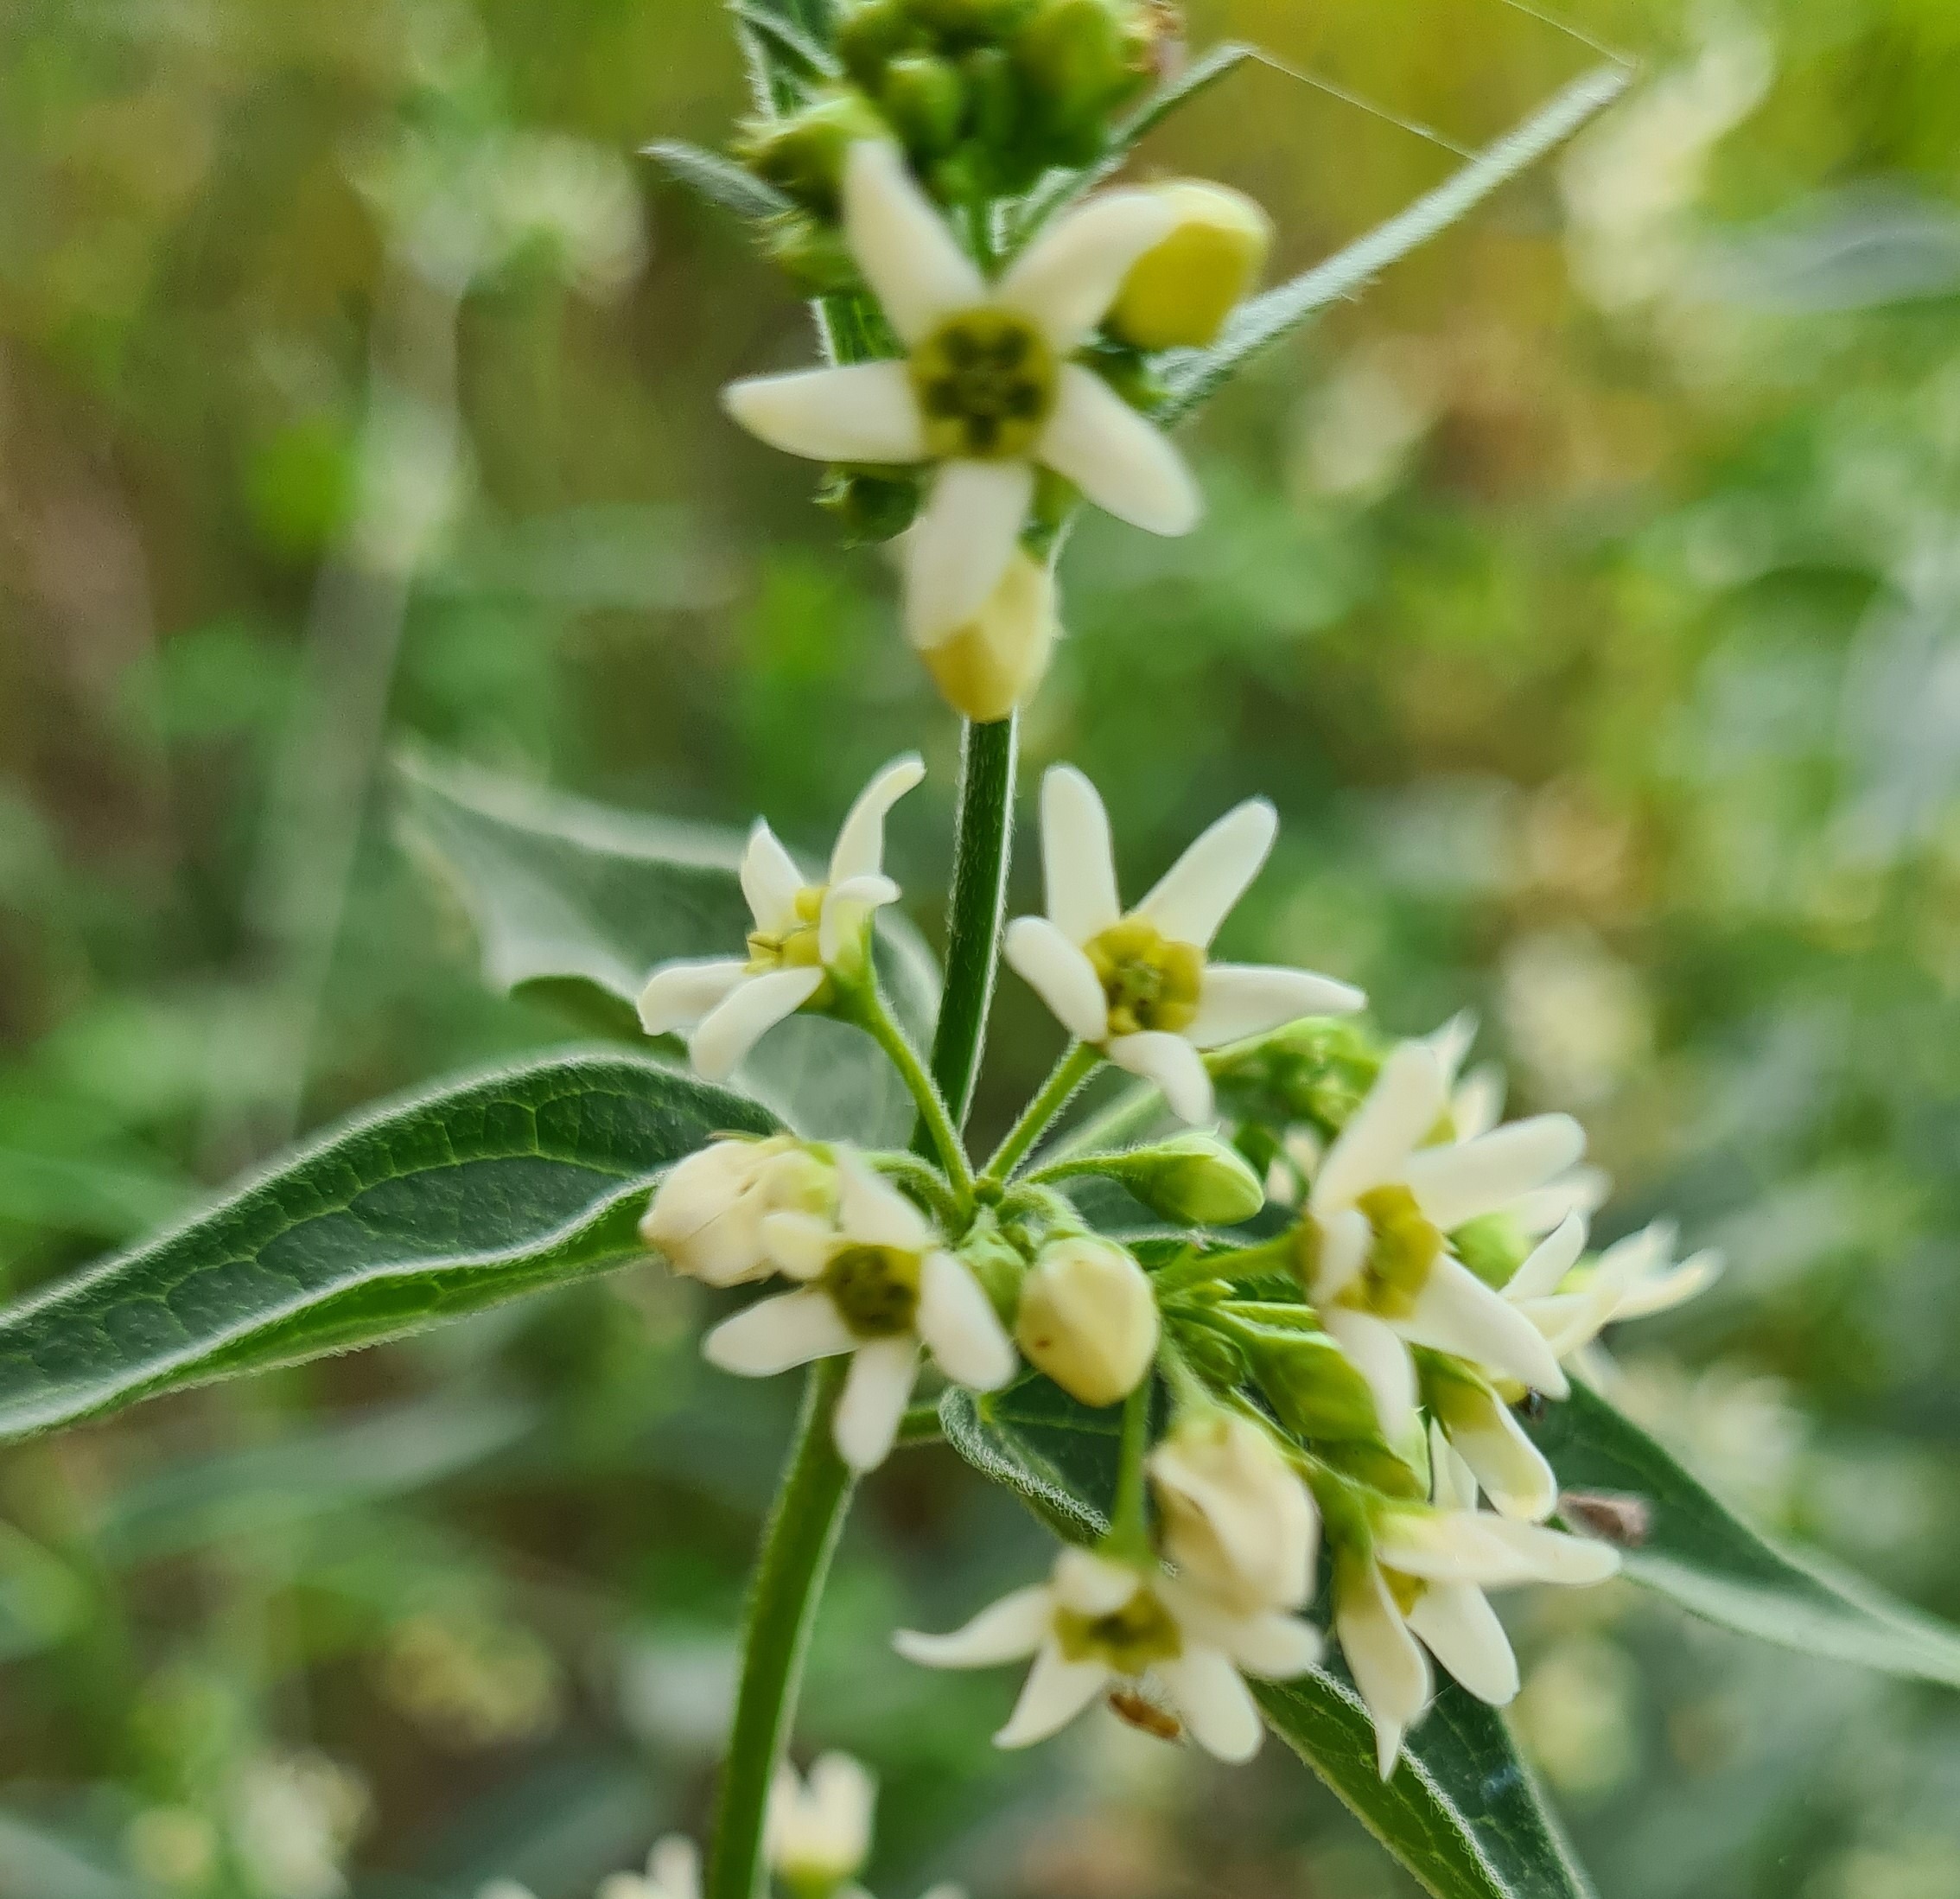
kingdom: Plantae
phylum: Tracheophyta
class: Magnoliopsida
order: Gentianales
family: Apocynaceae
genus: Vincetoxicum
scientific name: Vincetoxicum hirundinaria
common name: Svalerod
